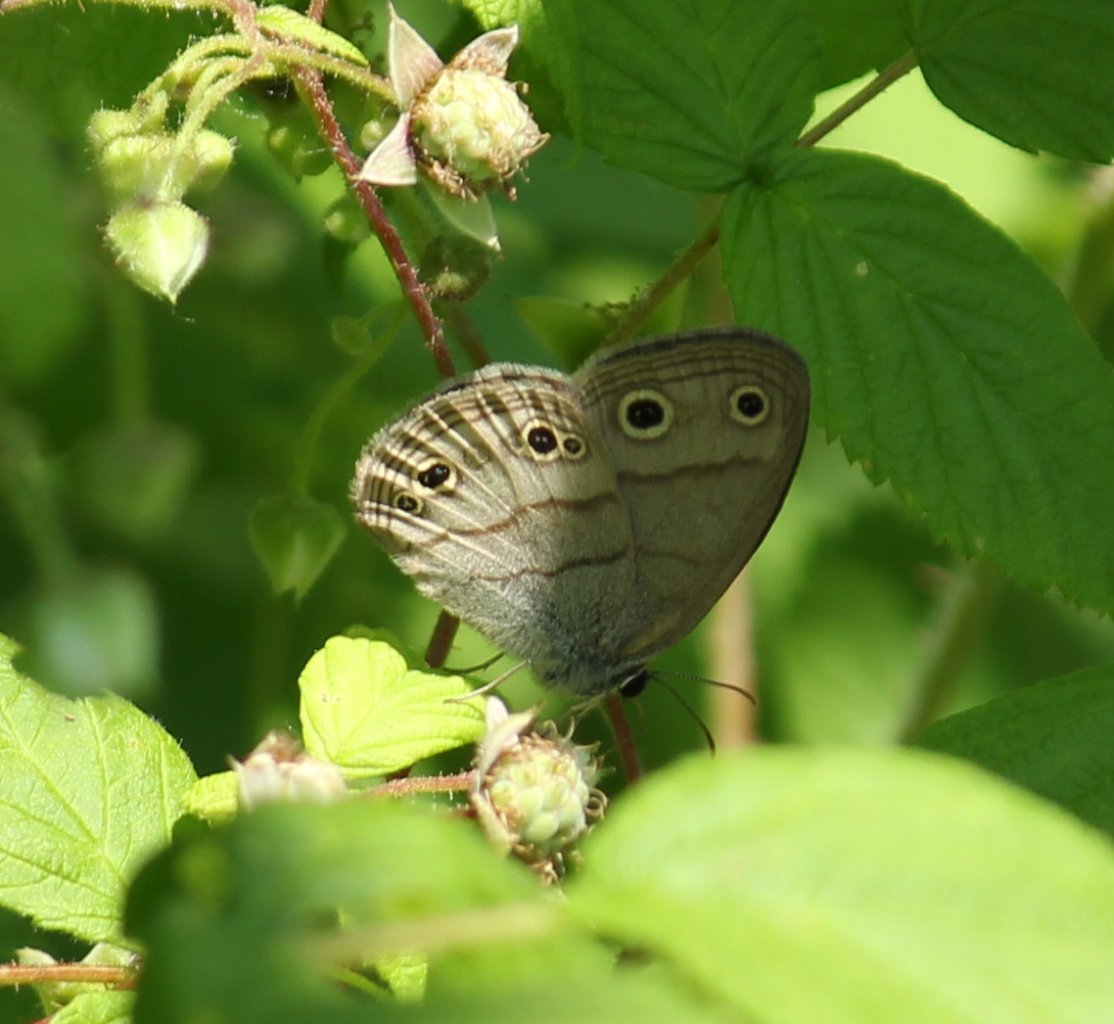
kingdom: Animalia
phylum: Arthropoda
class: Insecta
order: Lepidoptera
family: Nymphalidae
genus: Euptychia
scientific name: Euptychia cymela
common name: Little Wood Satyr
